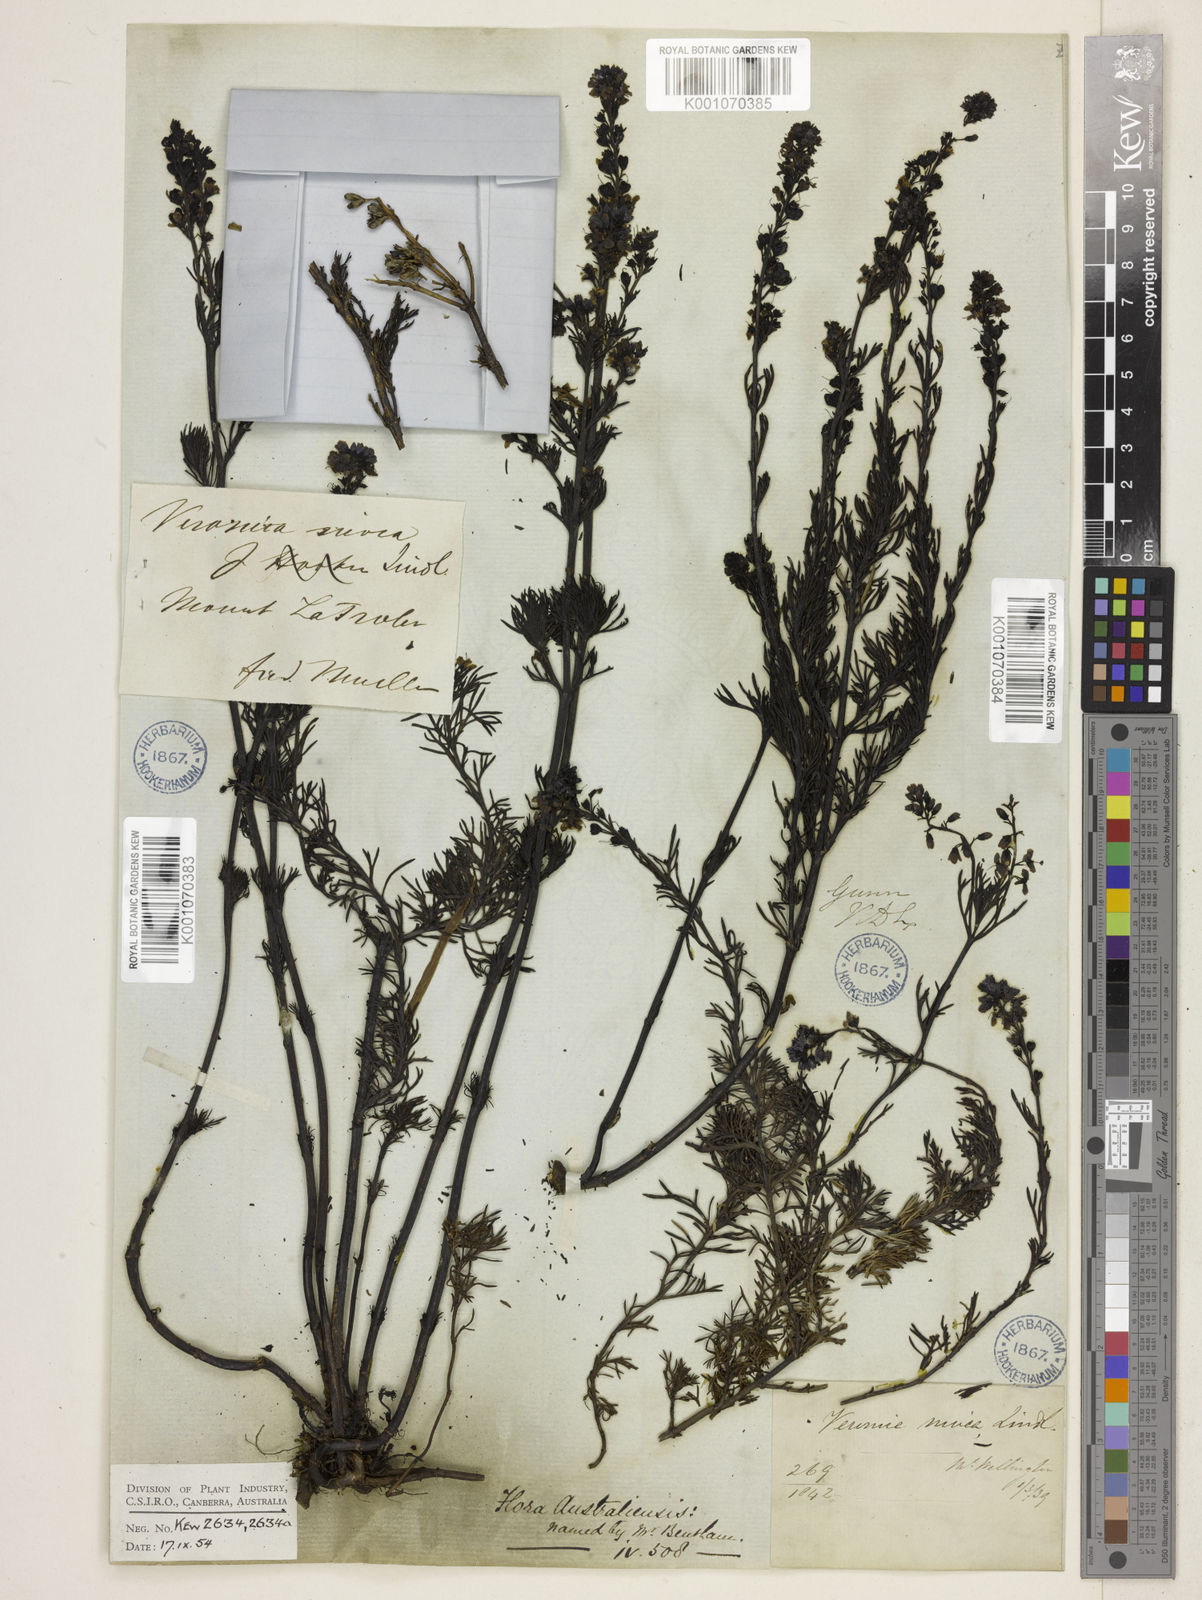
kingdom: Plantae
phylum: Tracheophyta
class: Magnoliopsida
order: Lamiales
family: Plantaginaceae
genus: Veronica
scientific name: Veronica nivea
